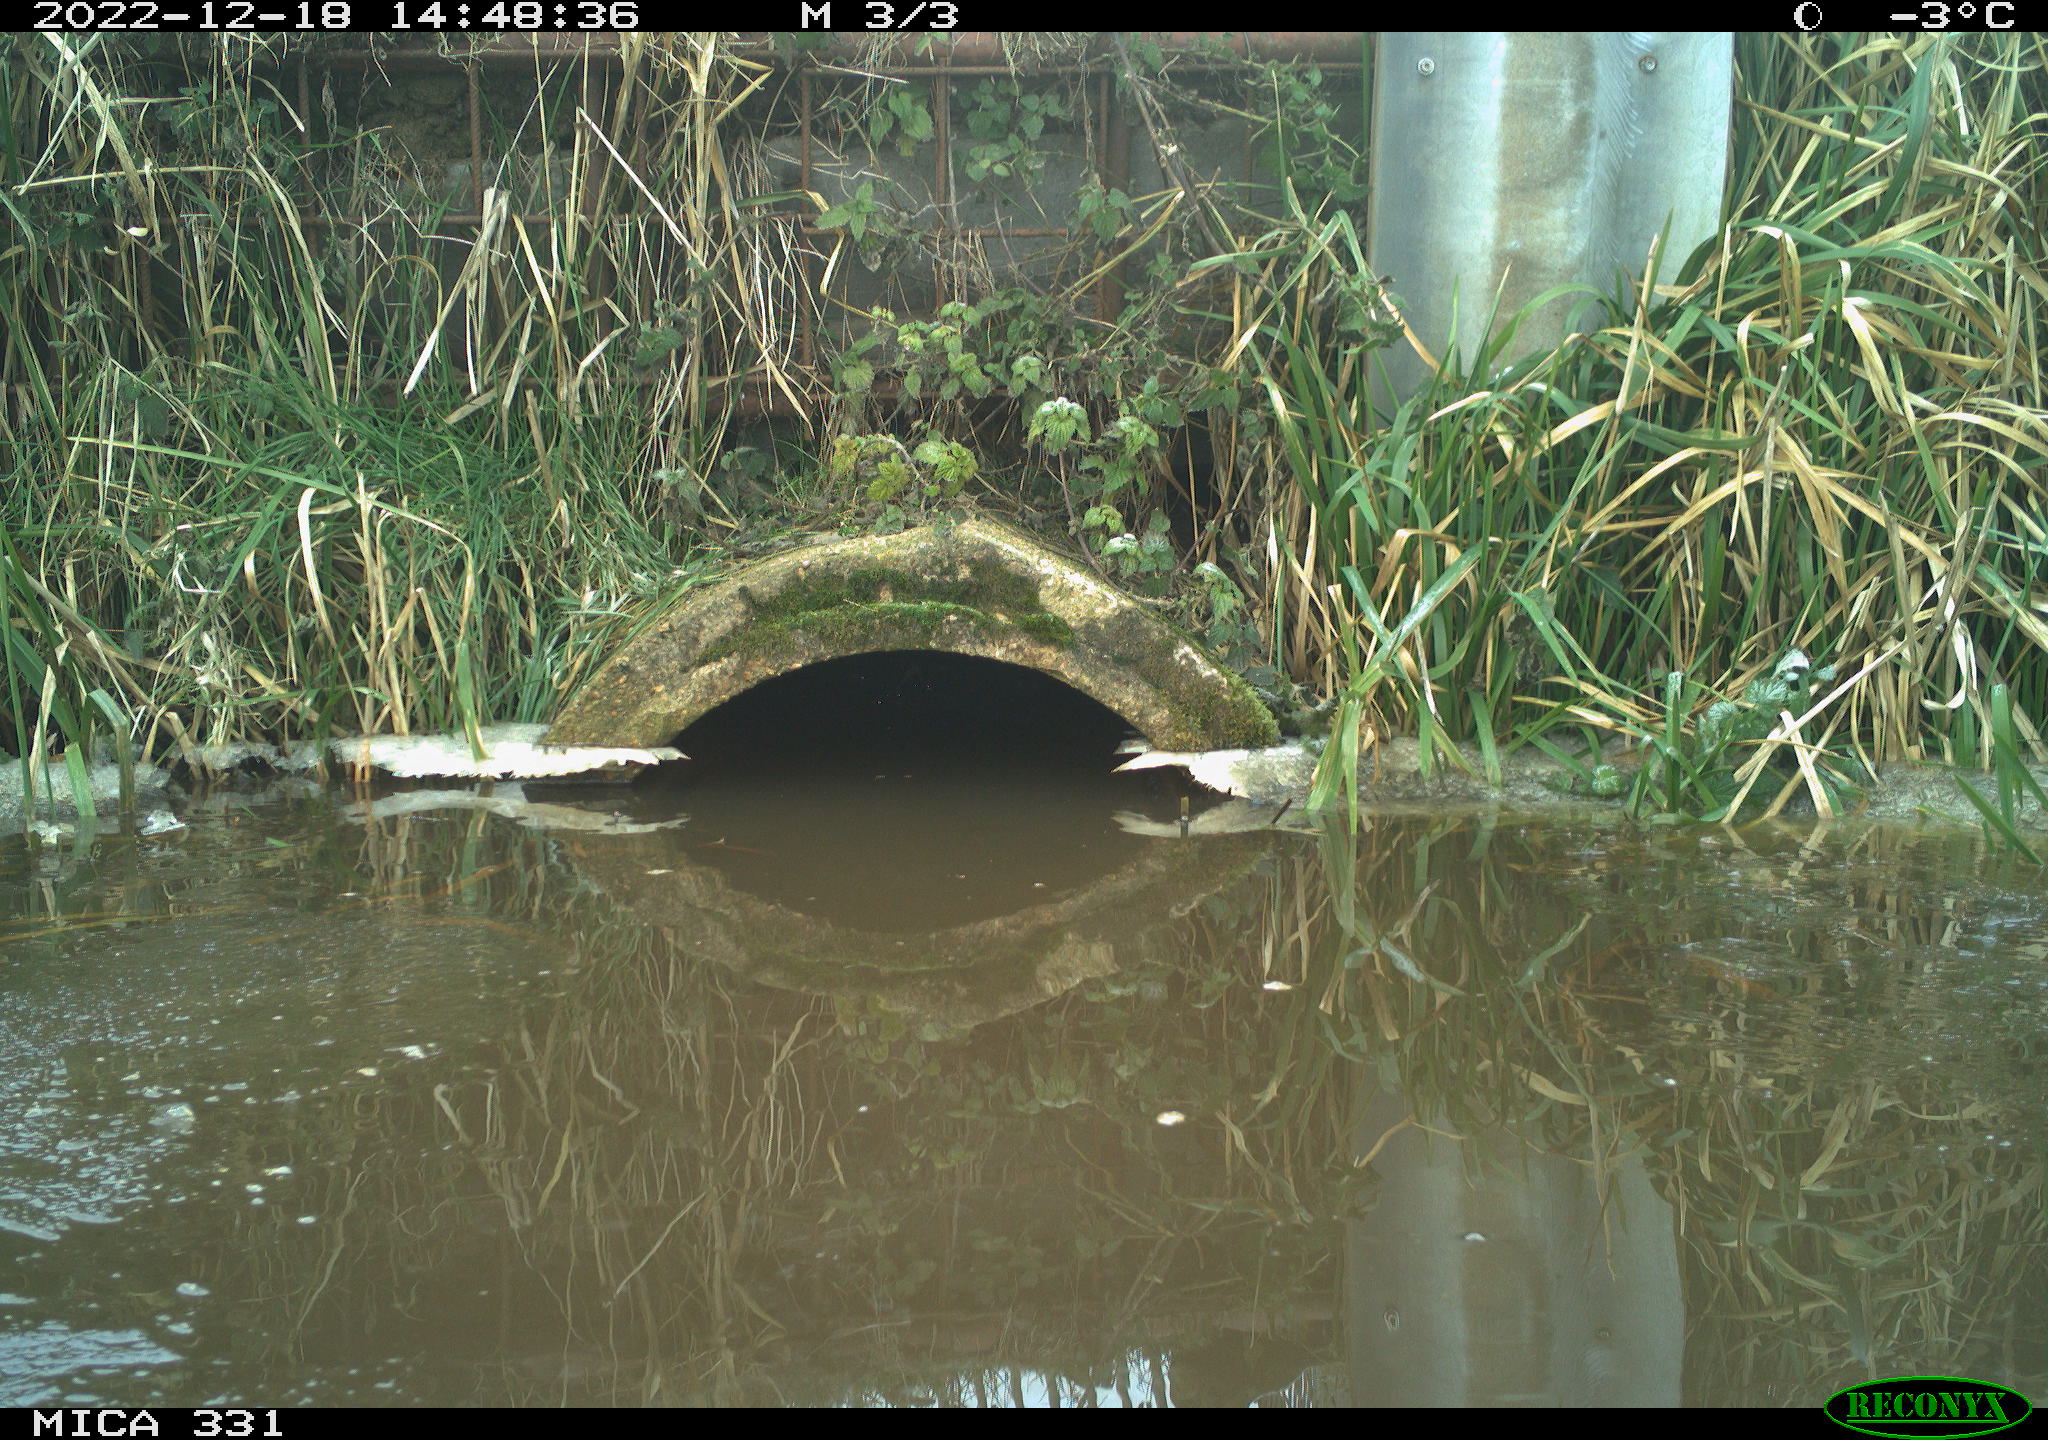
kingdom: Animalia
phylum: Chordata
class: Aves
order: Gruiformes
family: Rallidae
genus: Gallinula
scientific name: Gallinula chloropus
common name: Common moorhen
